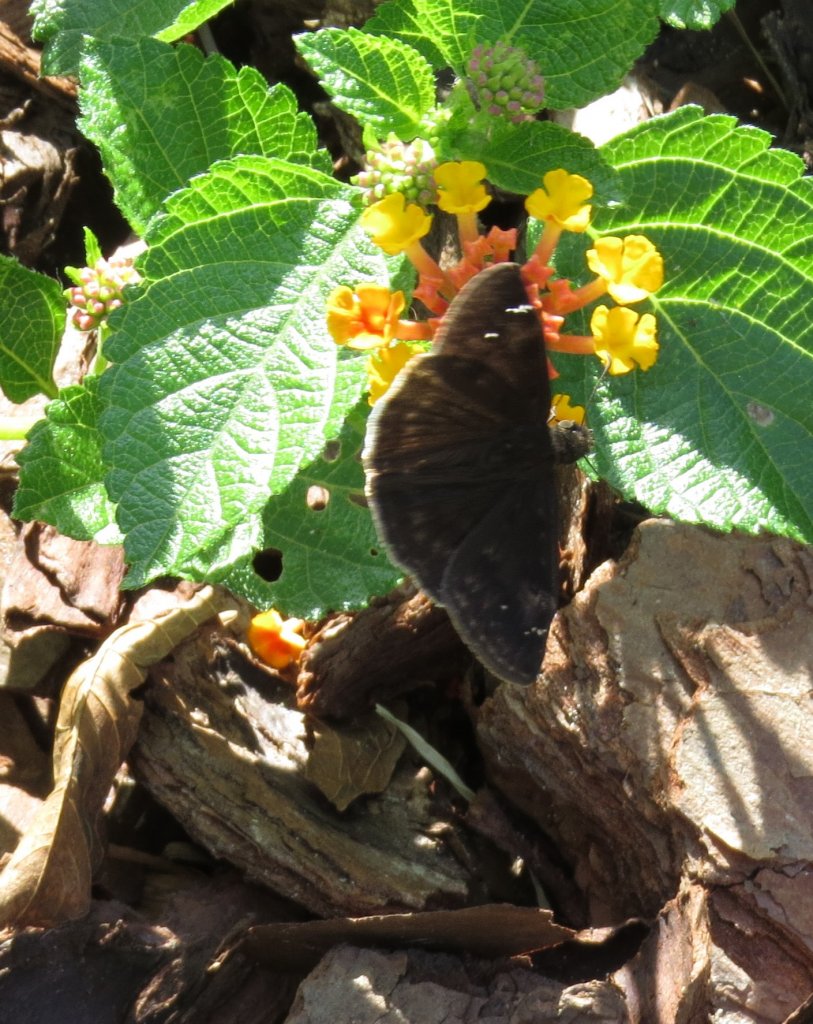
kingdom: Animalia
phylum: Arthropoda
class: Insecta
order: Lepidoptera
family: Hesperiidae
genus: Erynnis
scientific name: Erynnis zarucco
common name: Zarucco Duskywing
